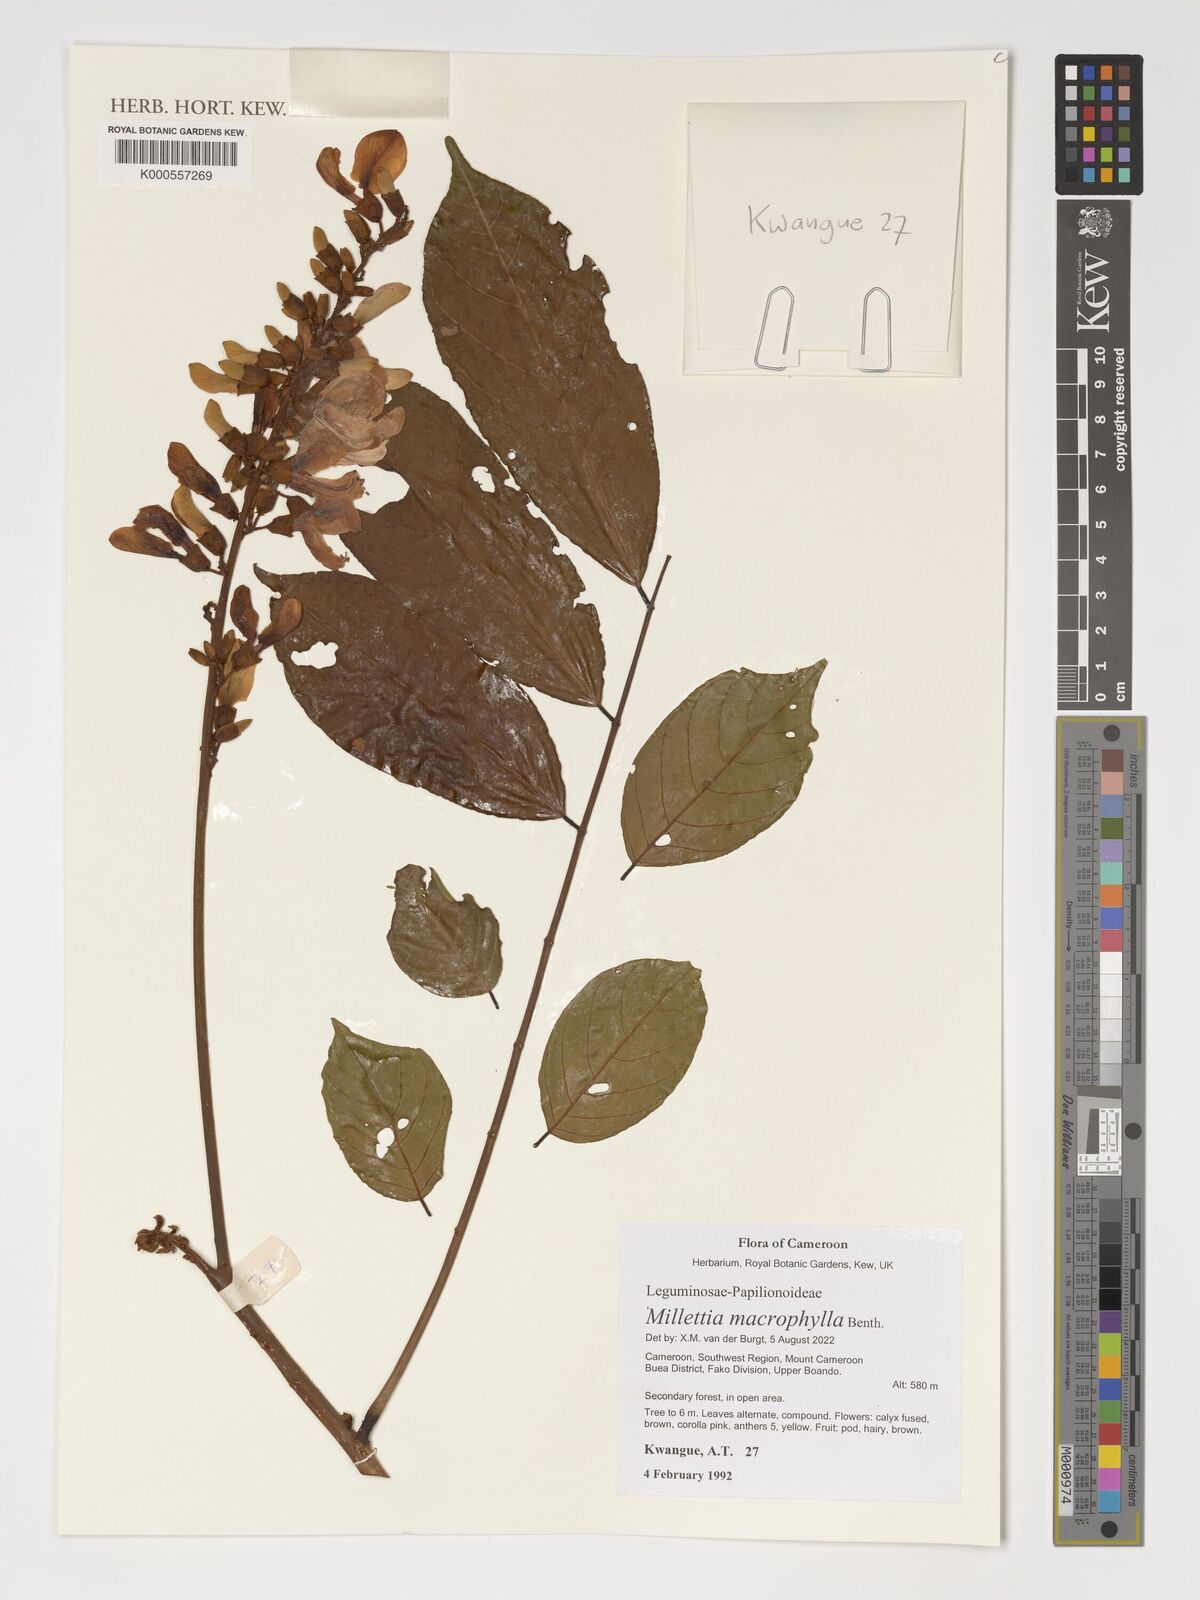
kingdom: Plantae
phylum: Tracheophyta
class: Magnoliopsida
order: Fabales
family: Fabaceae
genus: Millettia
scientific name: Millettia macrophylla
